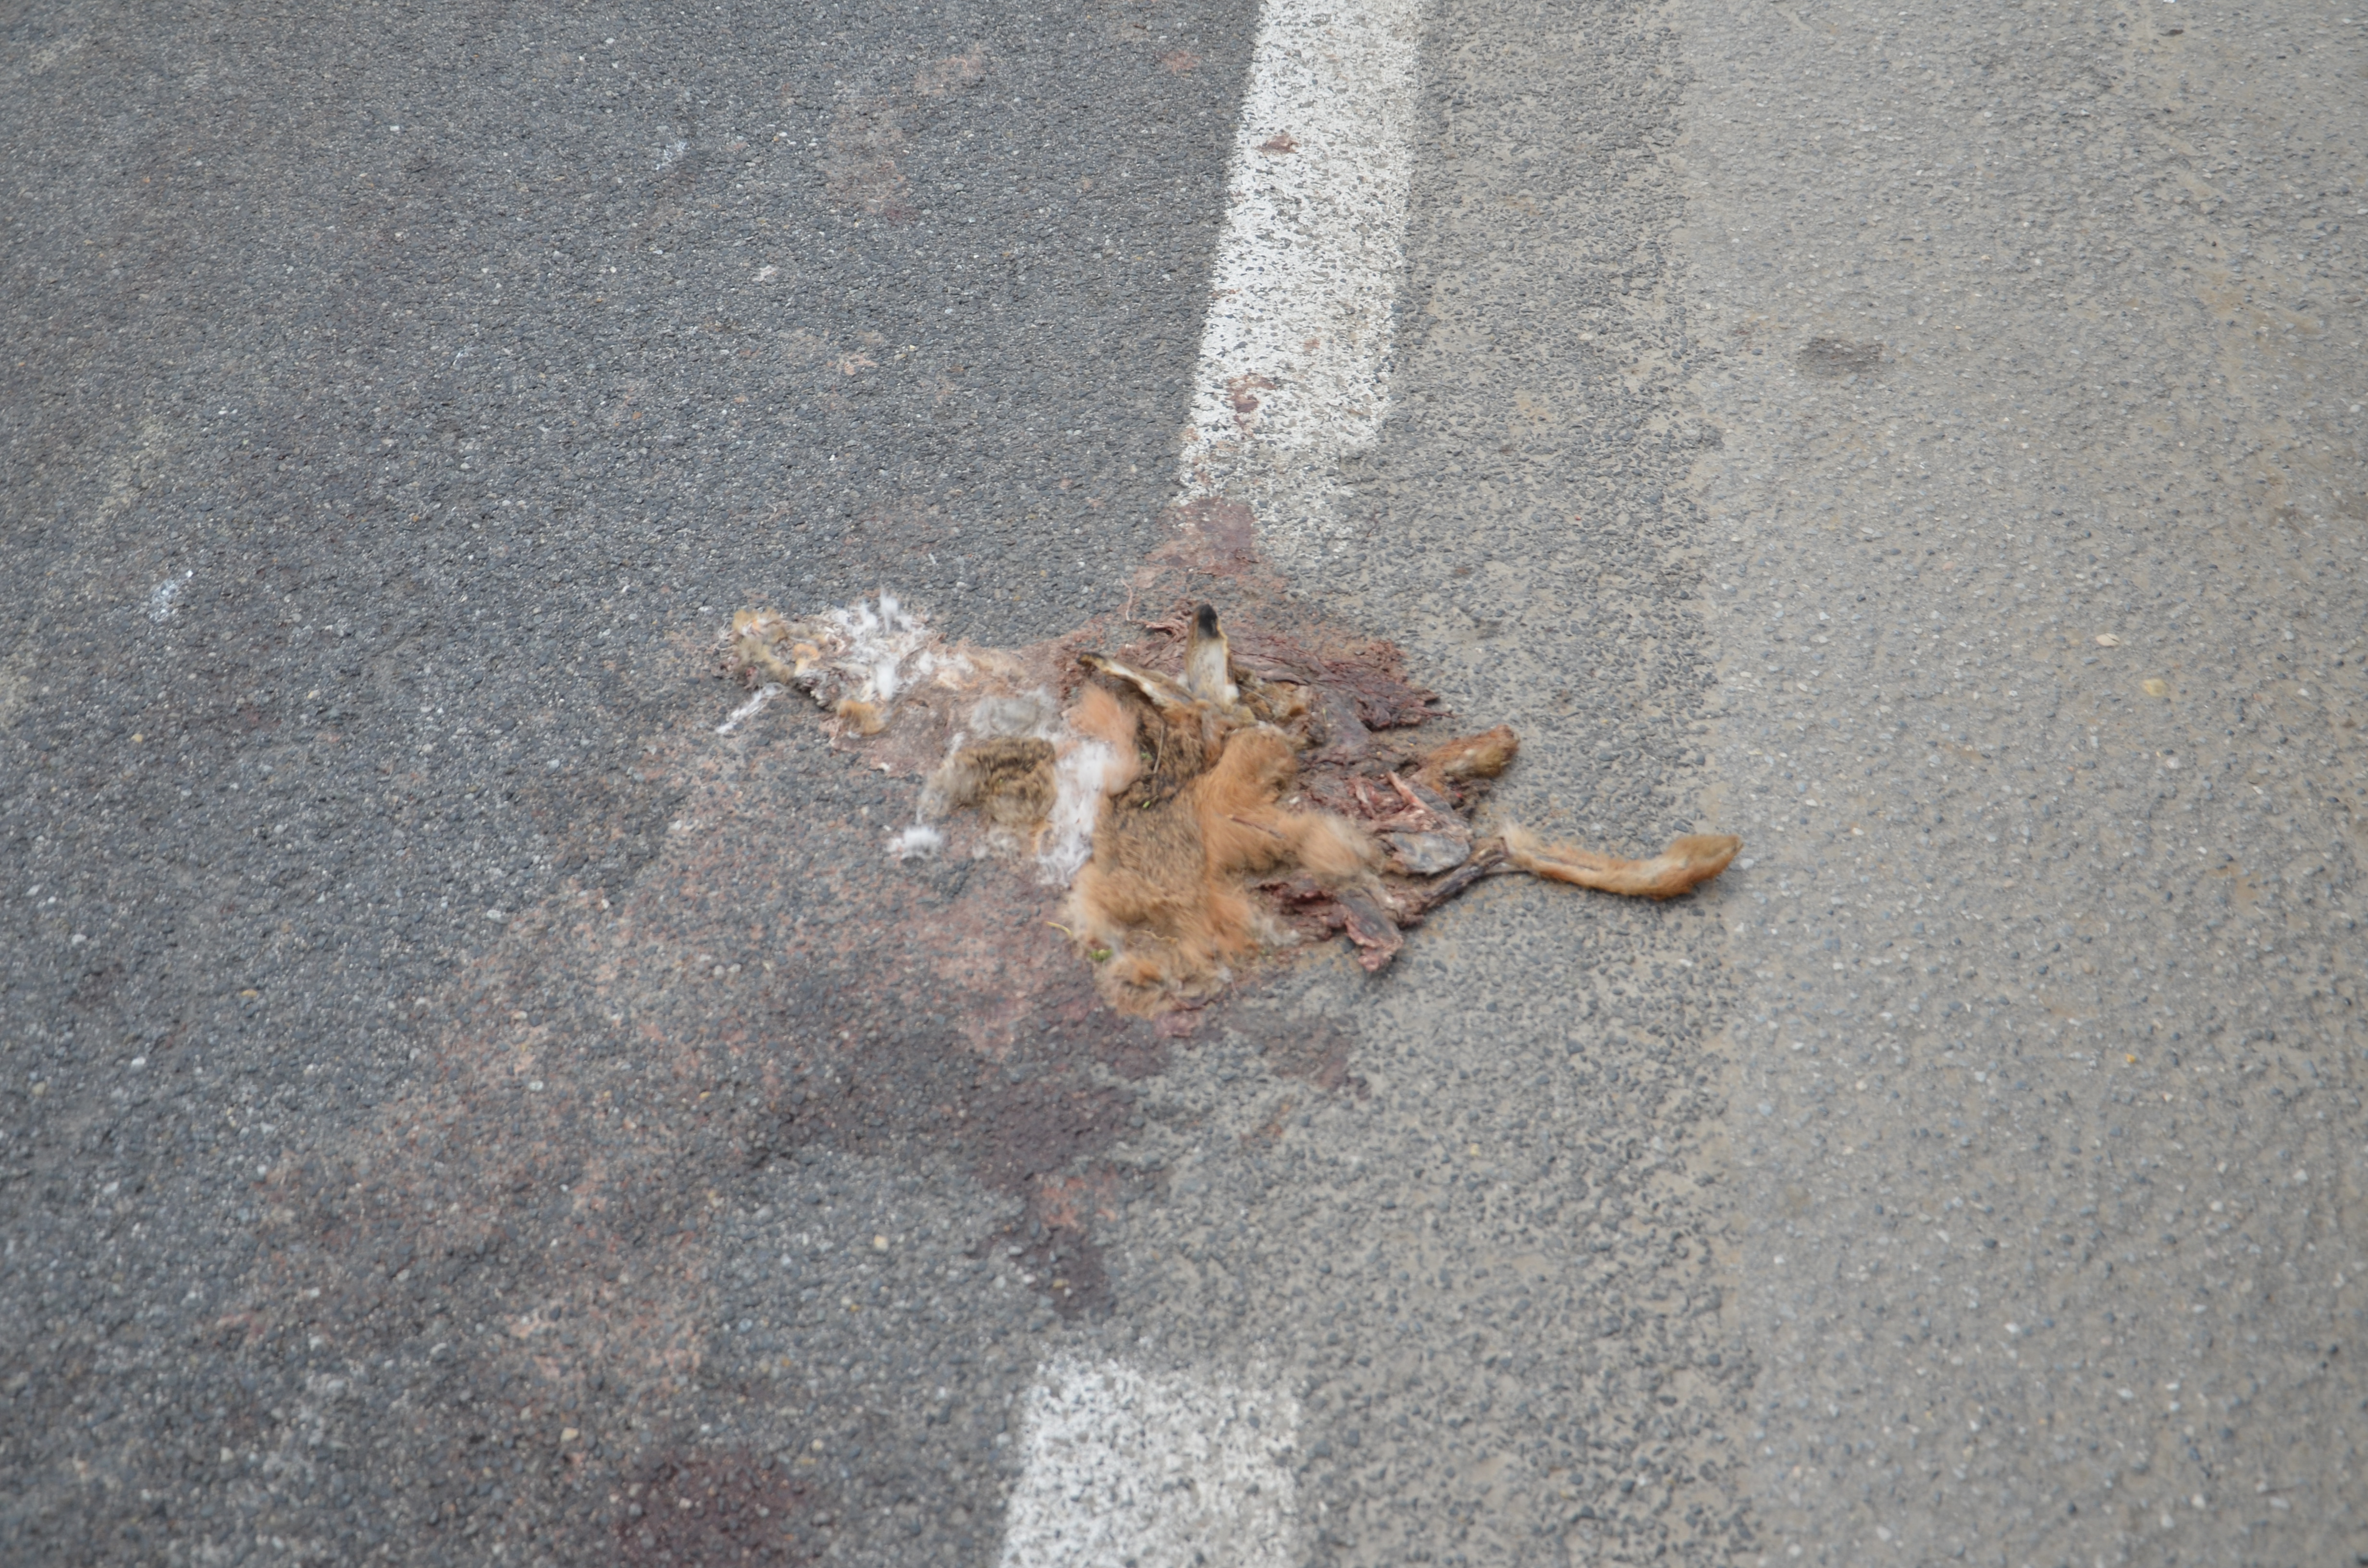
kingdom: Animalia
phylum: Chordata
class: Mammalia
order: Lagomorpha
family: Leporidae
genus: Lepus
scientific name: Lepus europaeus
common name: European hare
